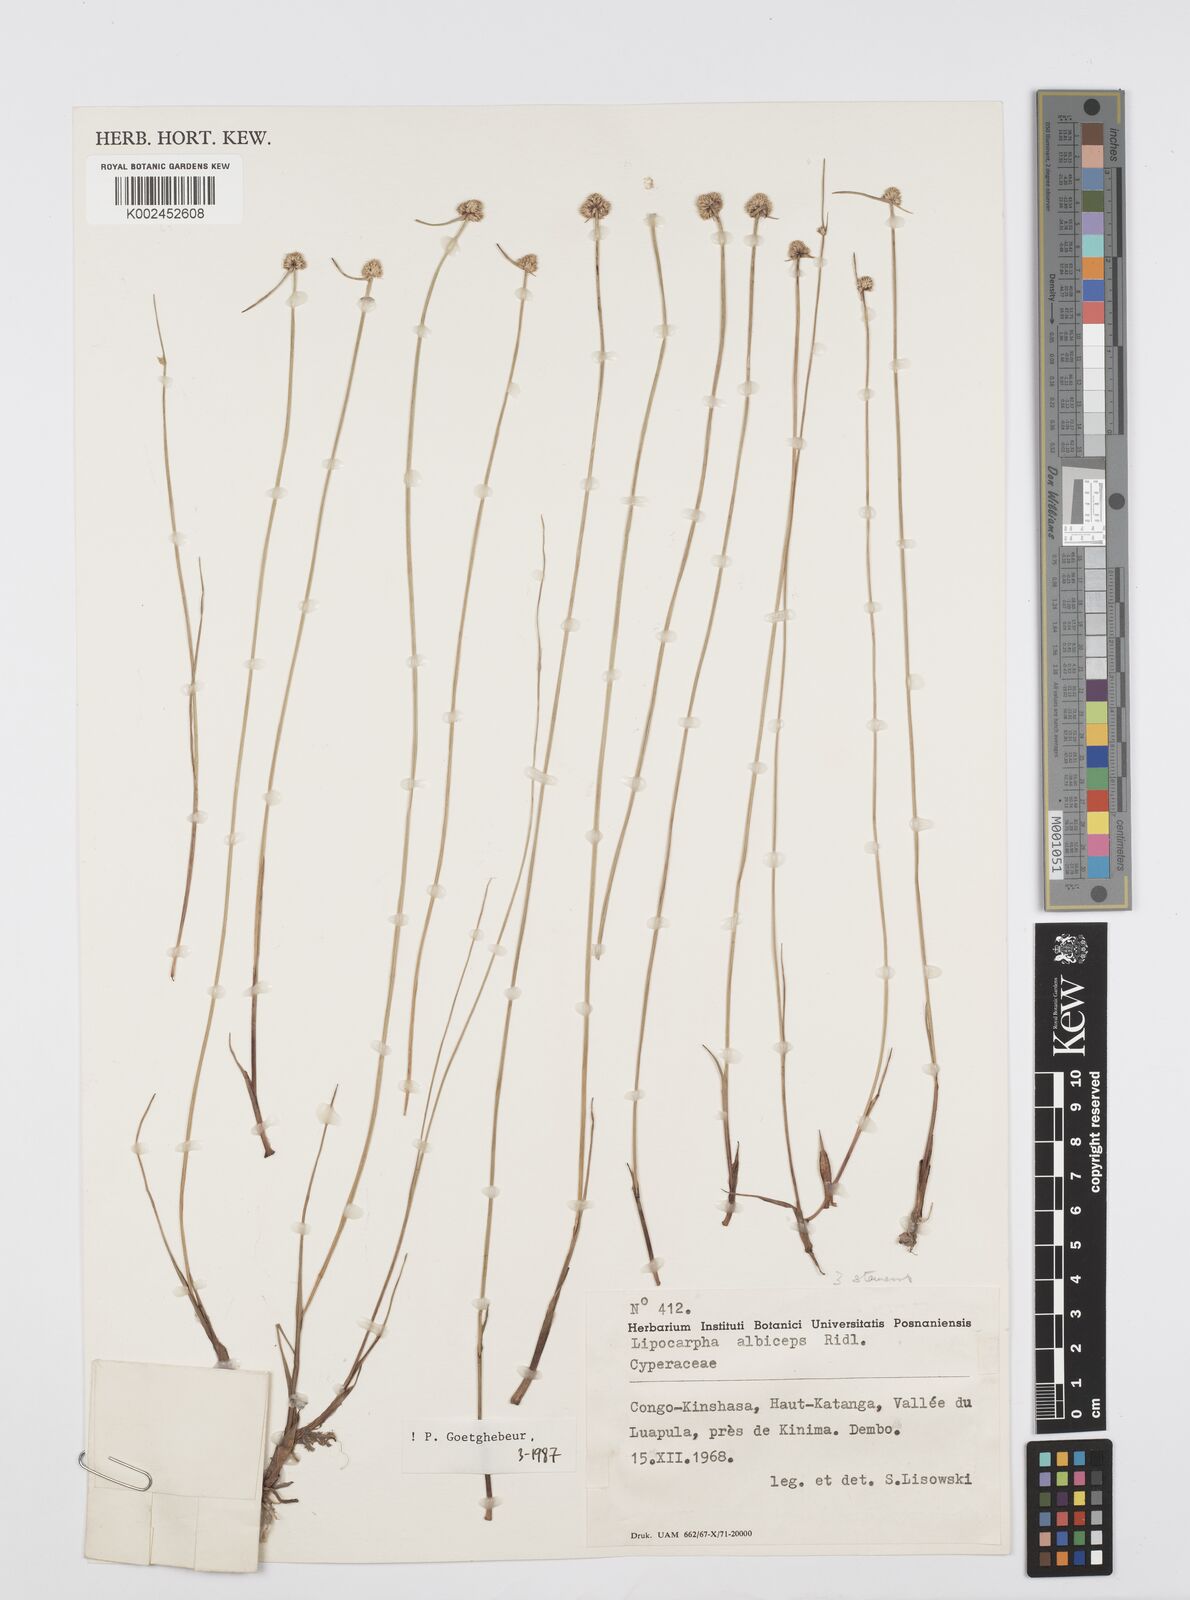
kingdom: Plantae
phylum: Tracheophyta
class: Liliopsida
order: Poales
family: Cyperaceae
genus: Cyperus
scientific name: Cyperus albiceps
